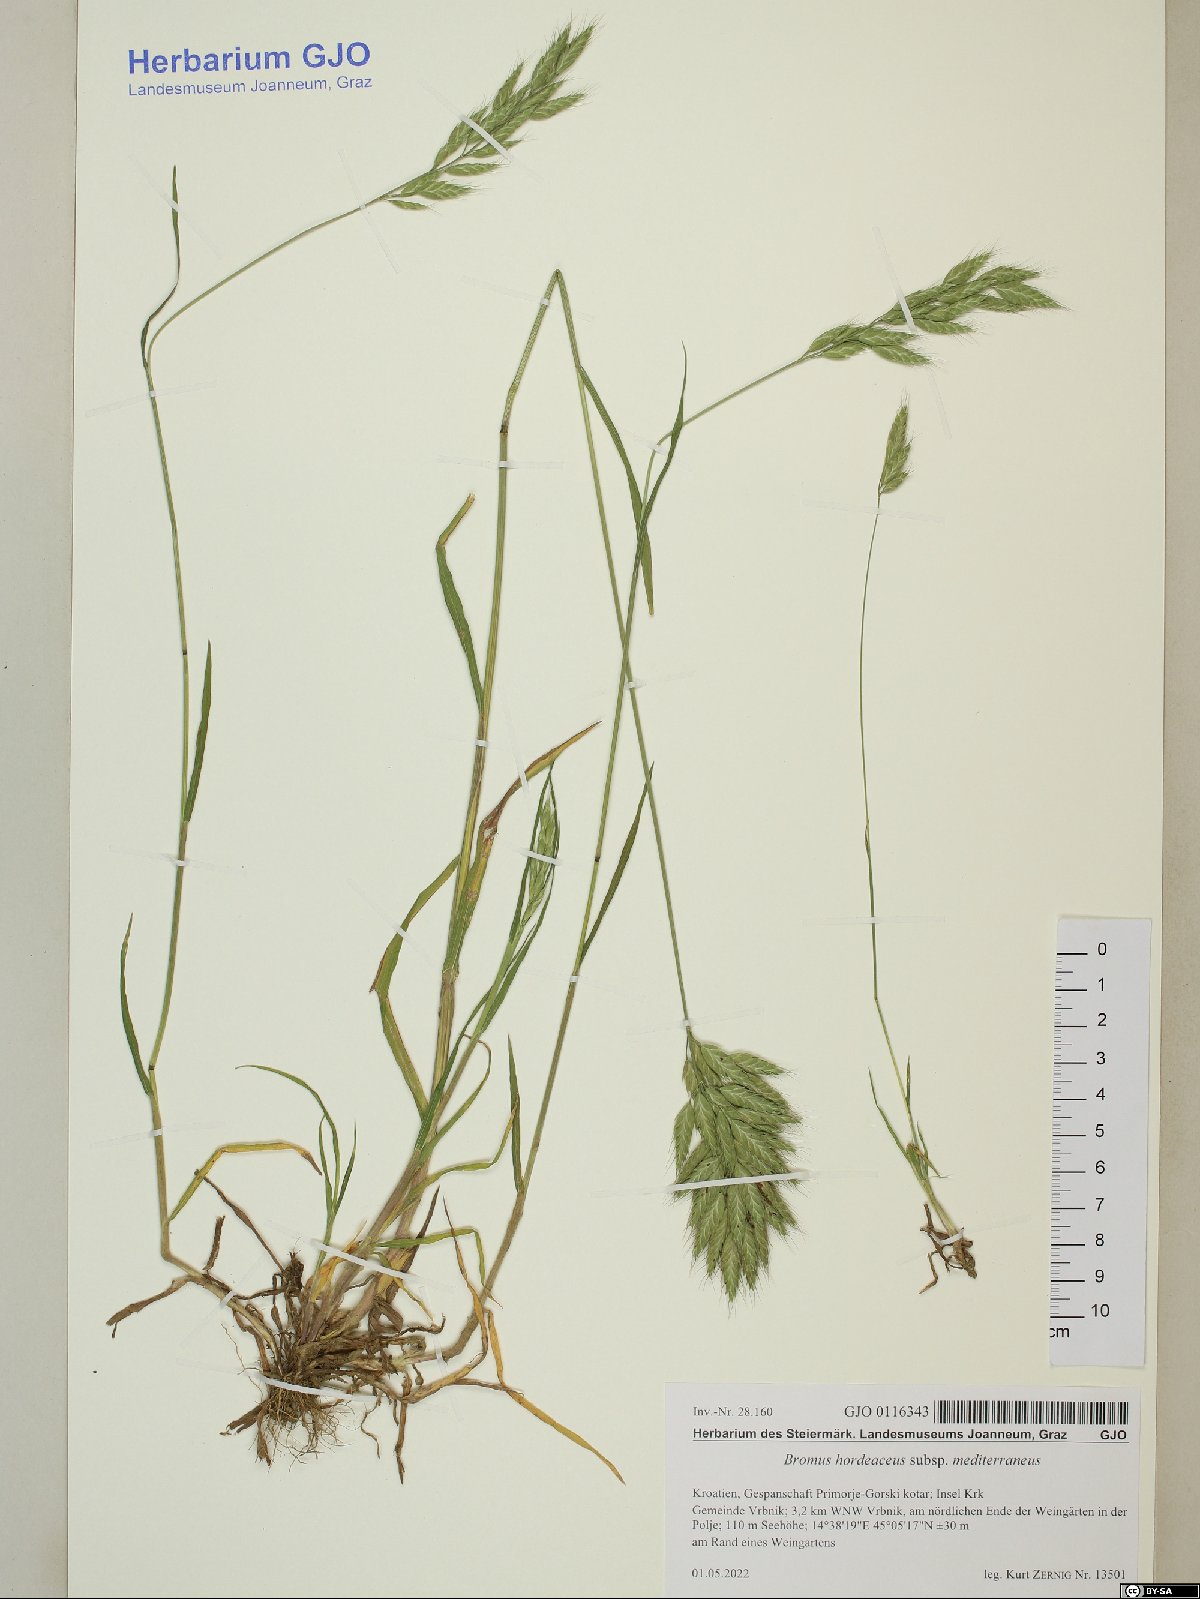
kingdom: Plantae
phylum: Tracheophyta
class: Liliopsida
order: Poales
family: Poaceae
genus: Bromus
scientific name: Bromus hordeaceus
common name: Soft brome
